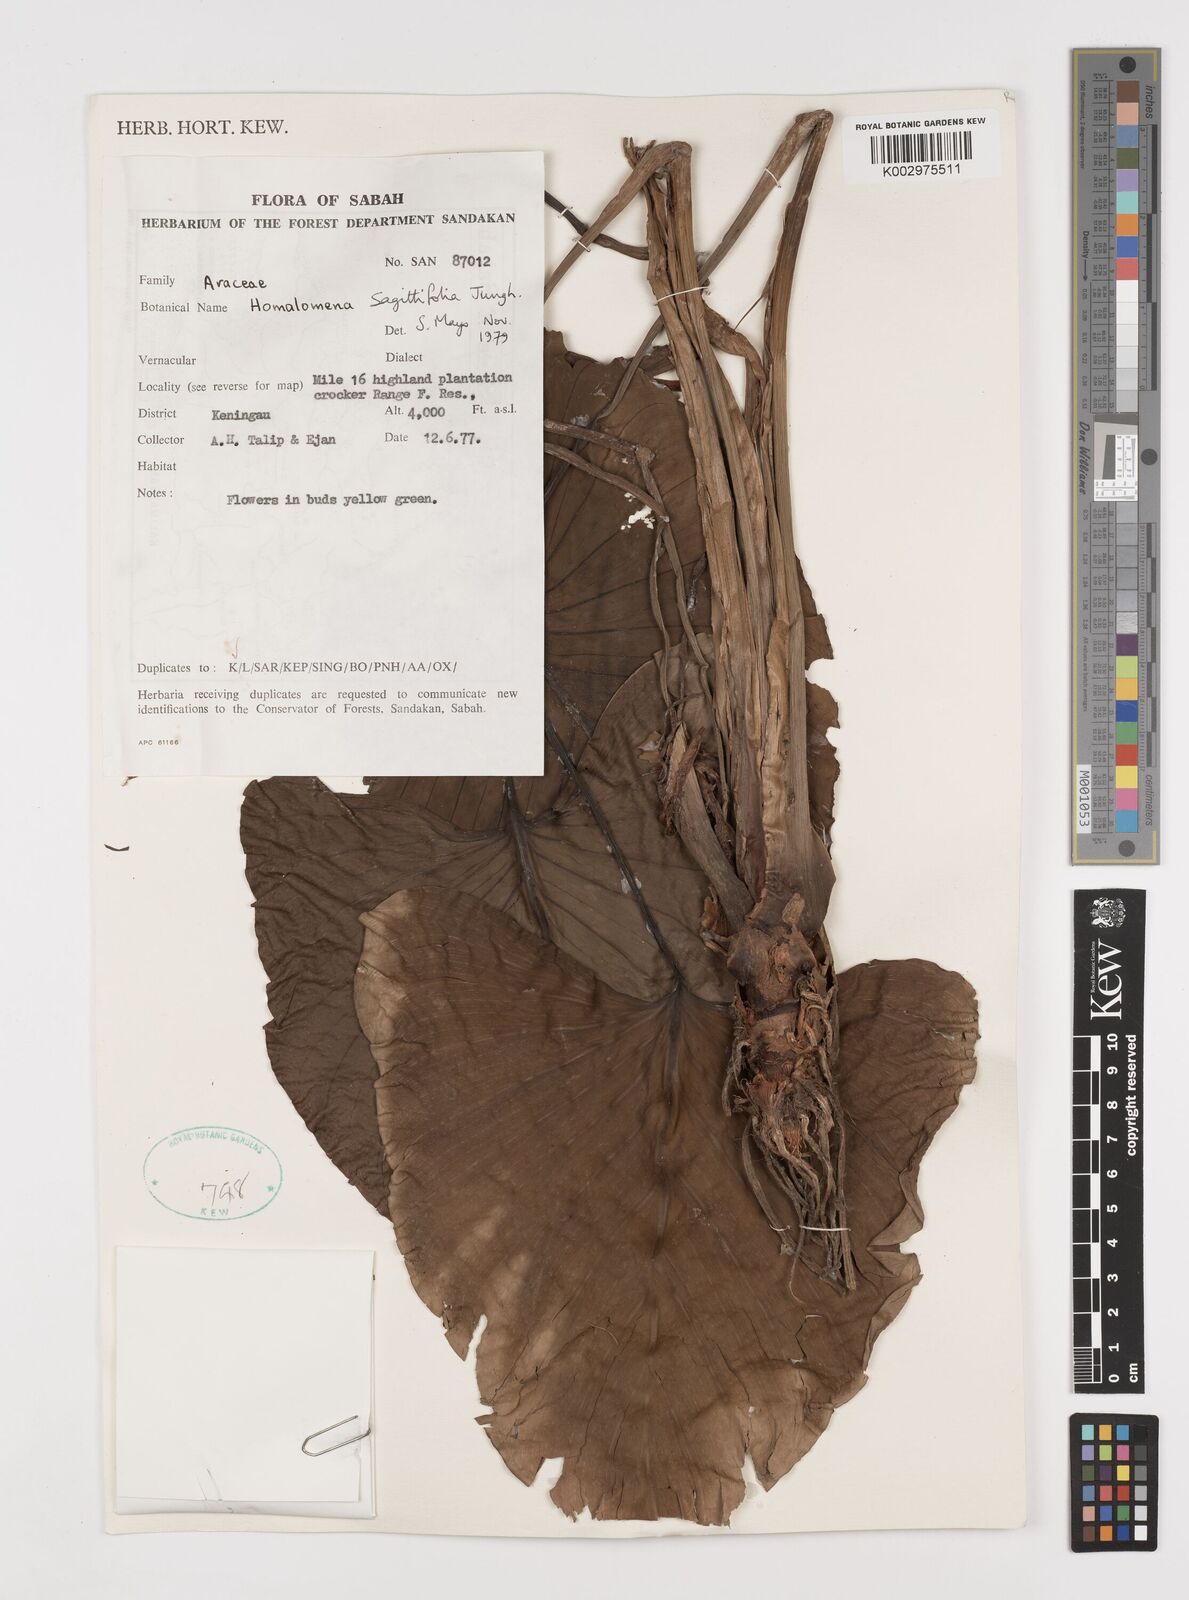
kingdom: Plantae
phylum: Tracheophyta
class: Liliopsida
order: Alismatales
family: Araceae
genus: Homalomena
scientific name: Homalomena rostrata
